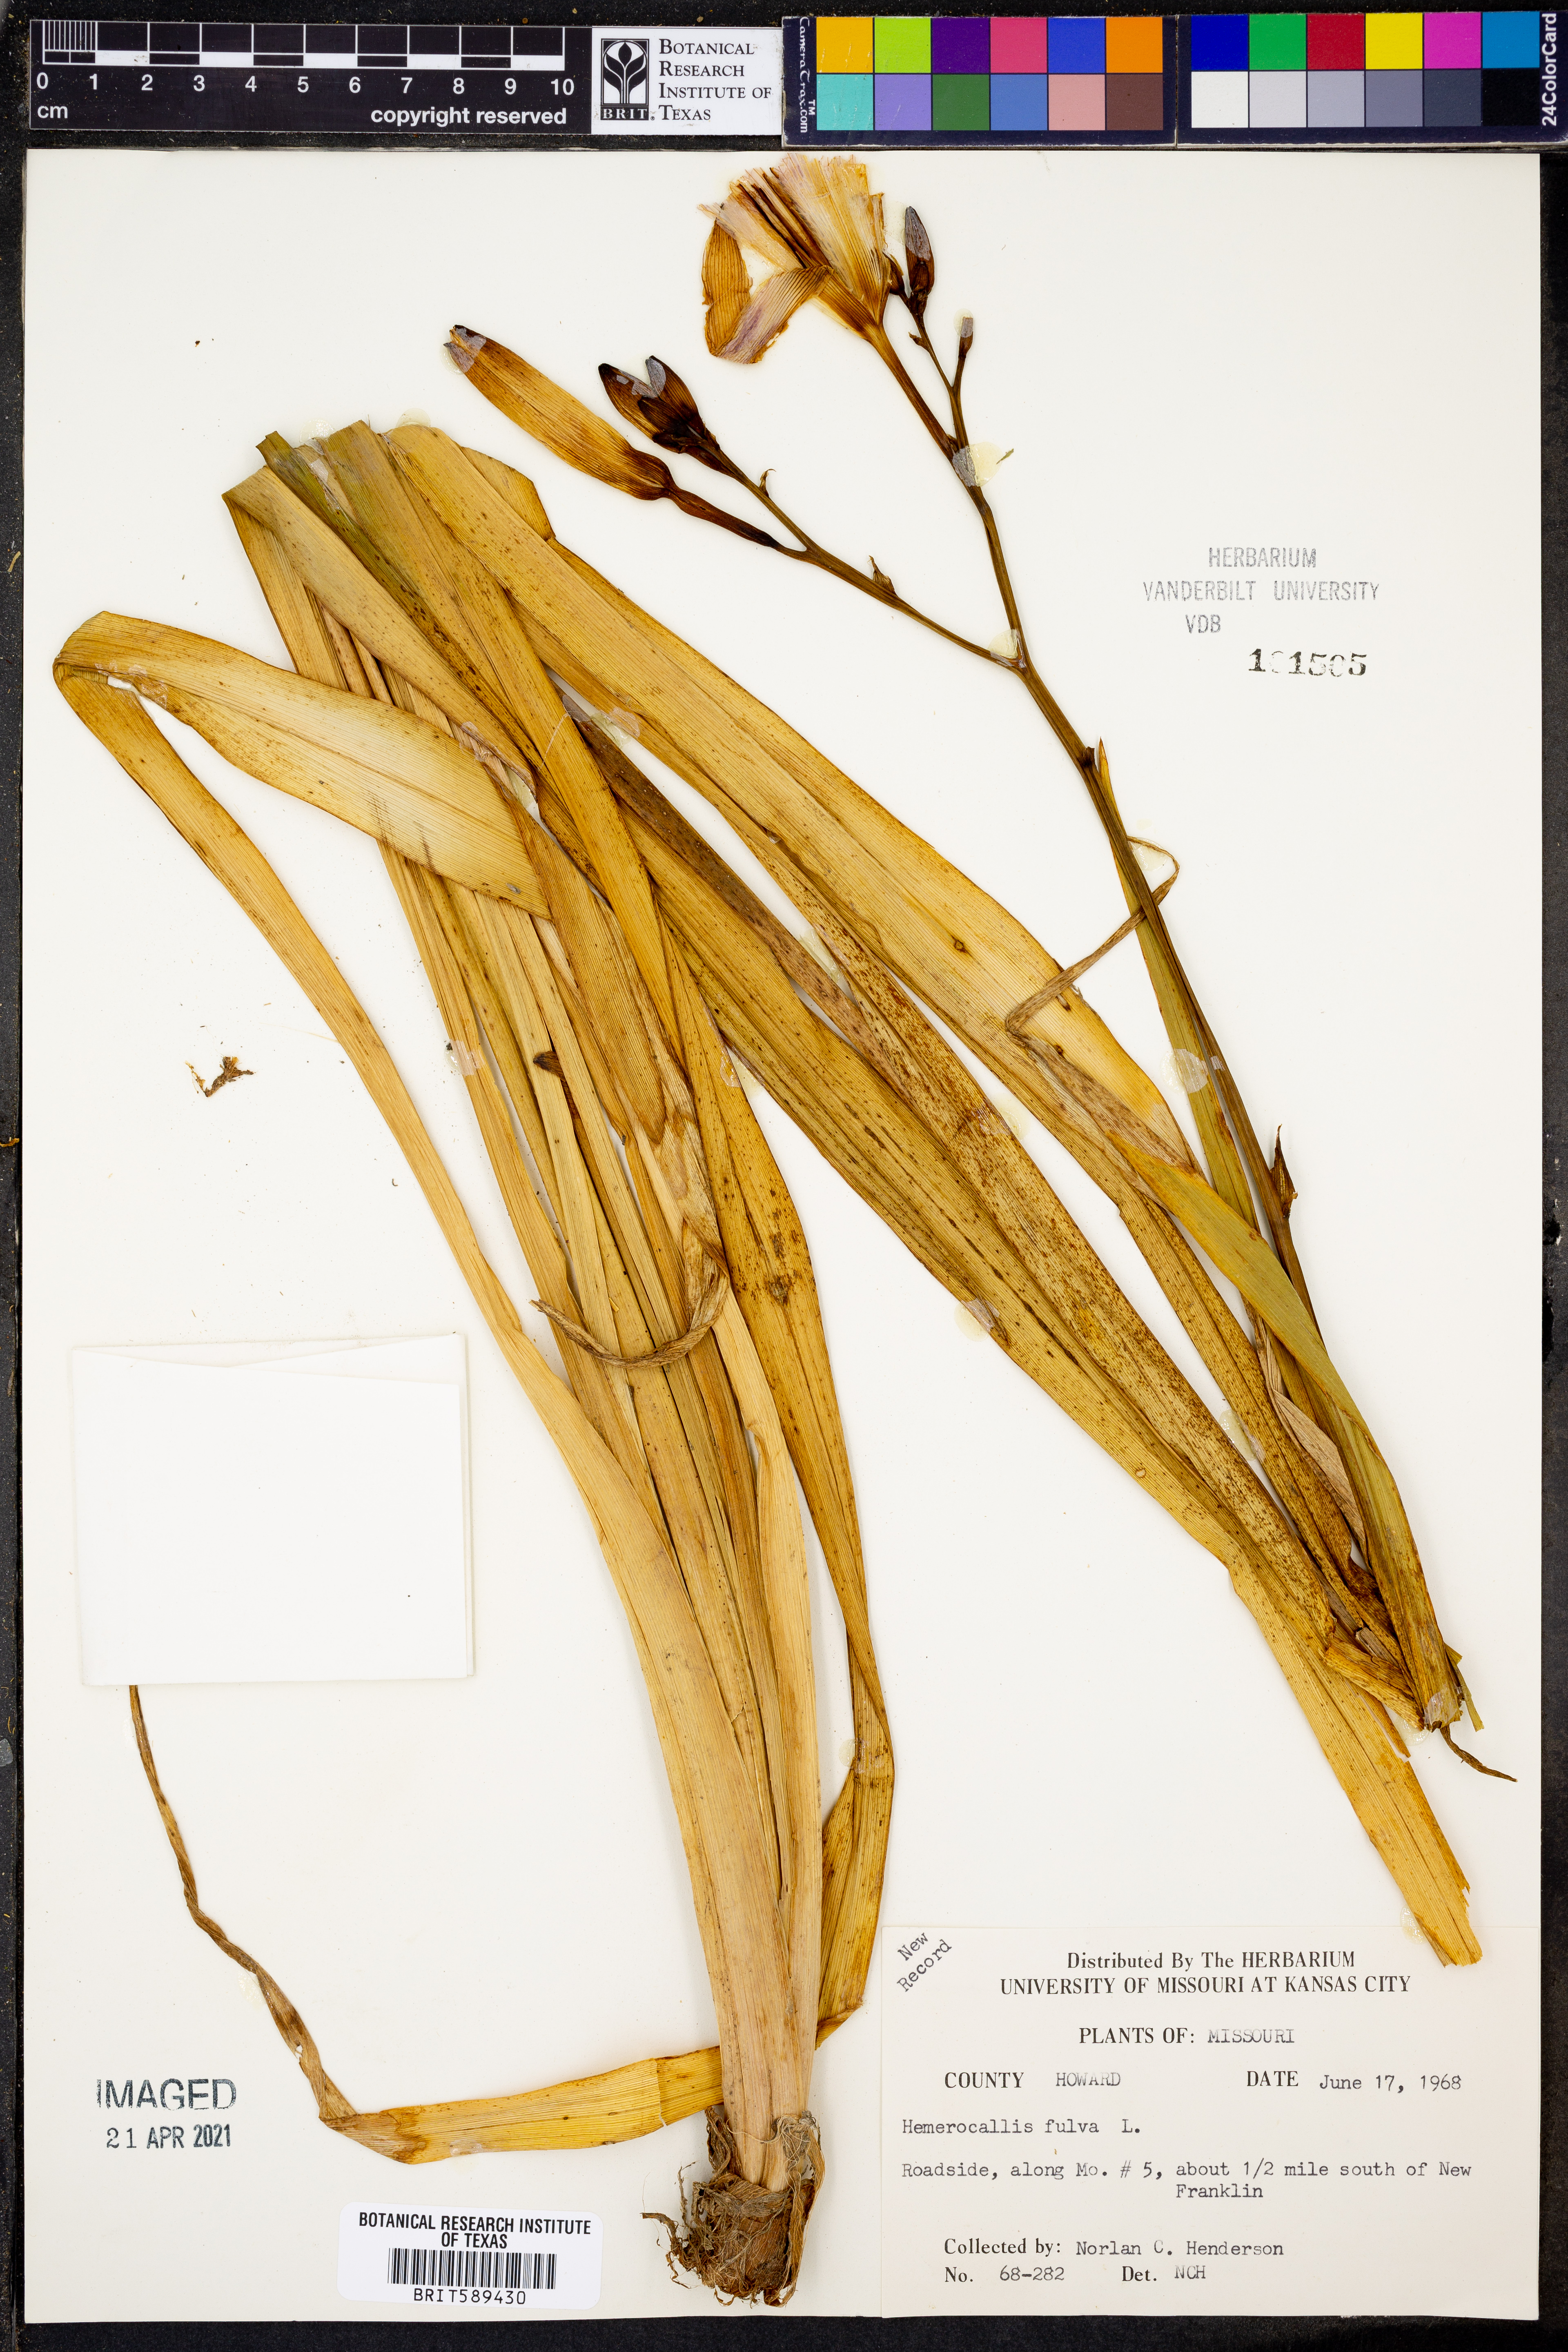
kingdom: Plantae
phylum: Tracheophyta
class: Liliopsida
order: Asparagales
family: Asphodelaceae
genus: Hemerocallis
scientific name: Hemerocallis fulva
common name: Orange day-lily
